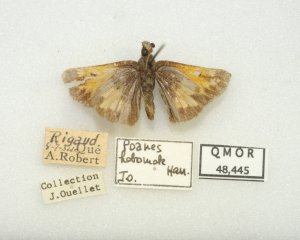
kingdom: Animalia
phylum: Arthropoda
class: Insecta
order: Lepidoptera
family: Hesperiidae
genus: Lon
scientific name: Lon hobomok
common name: Hobomok Skipper
